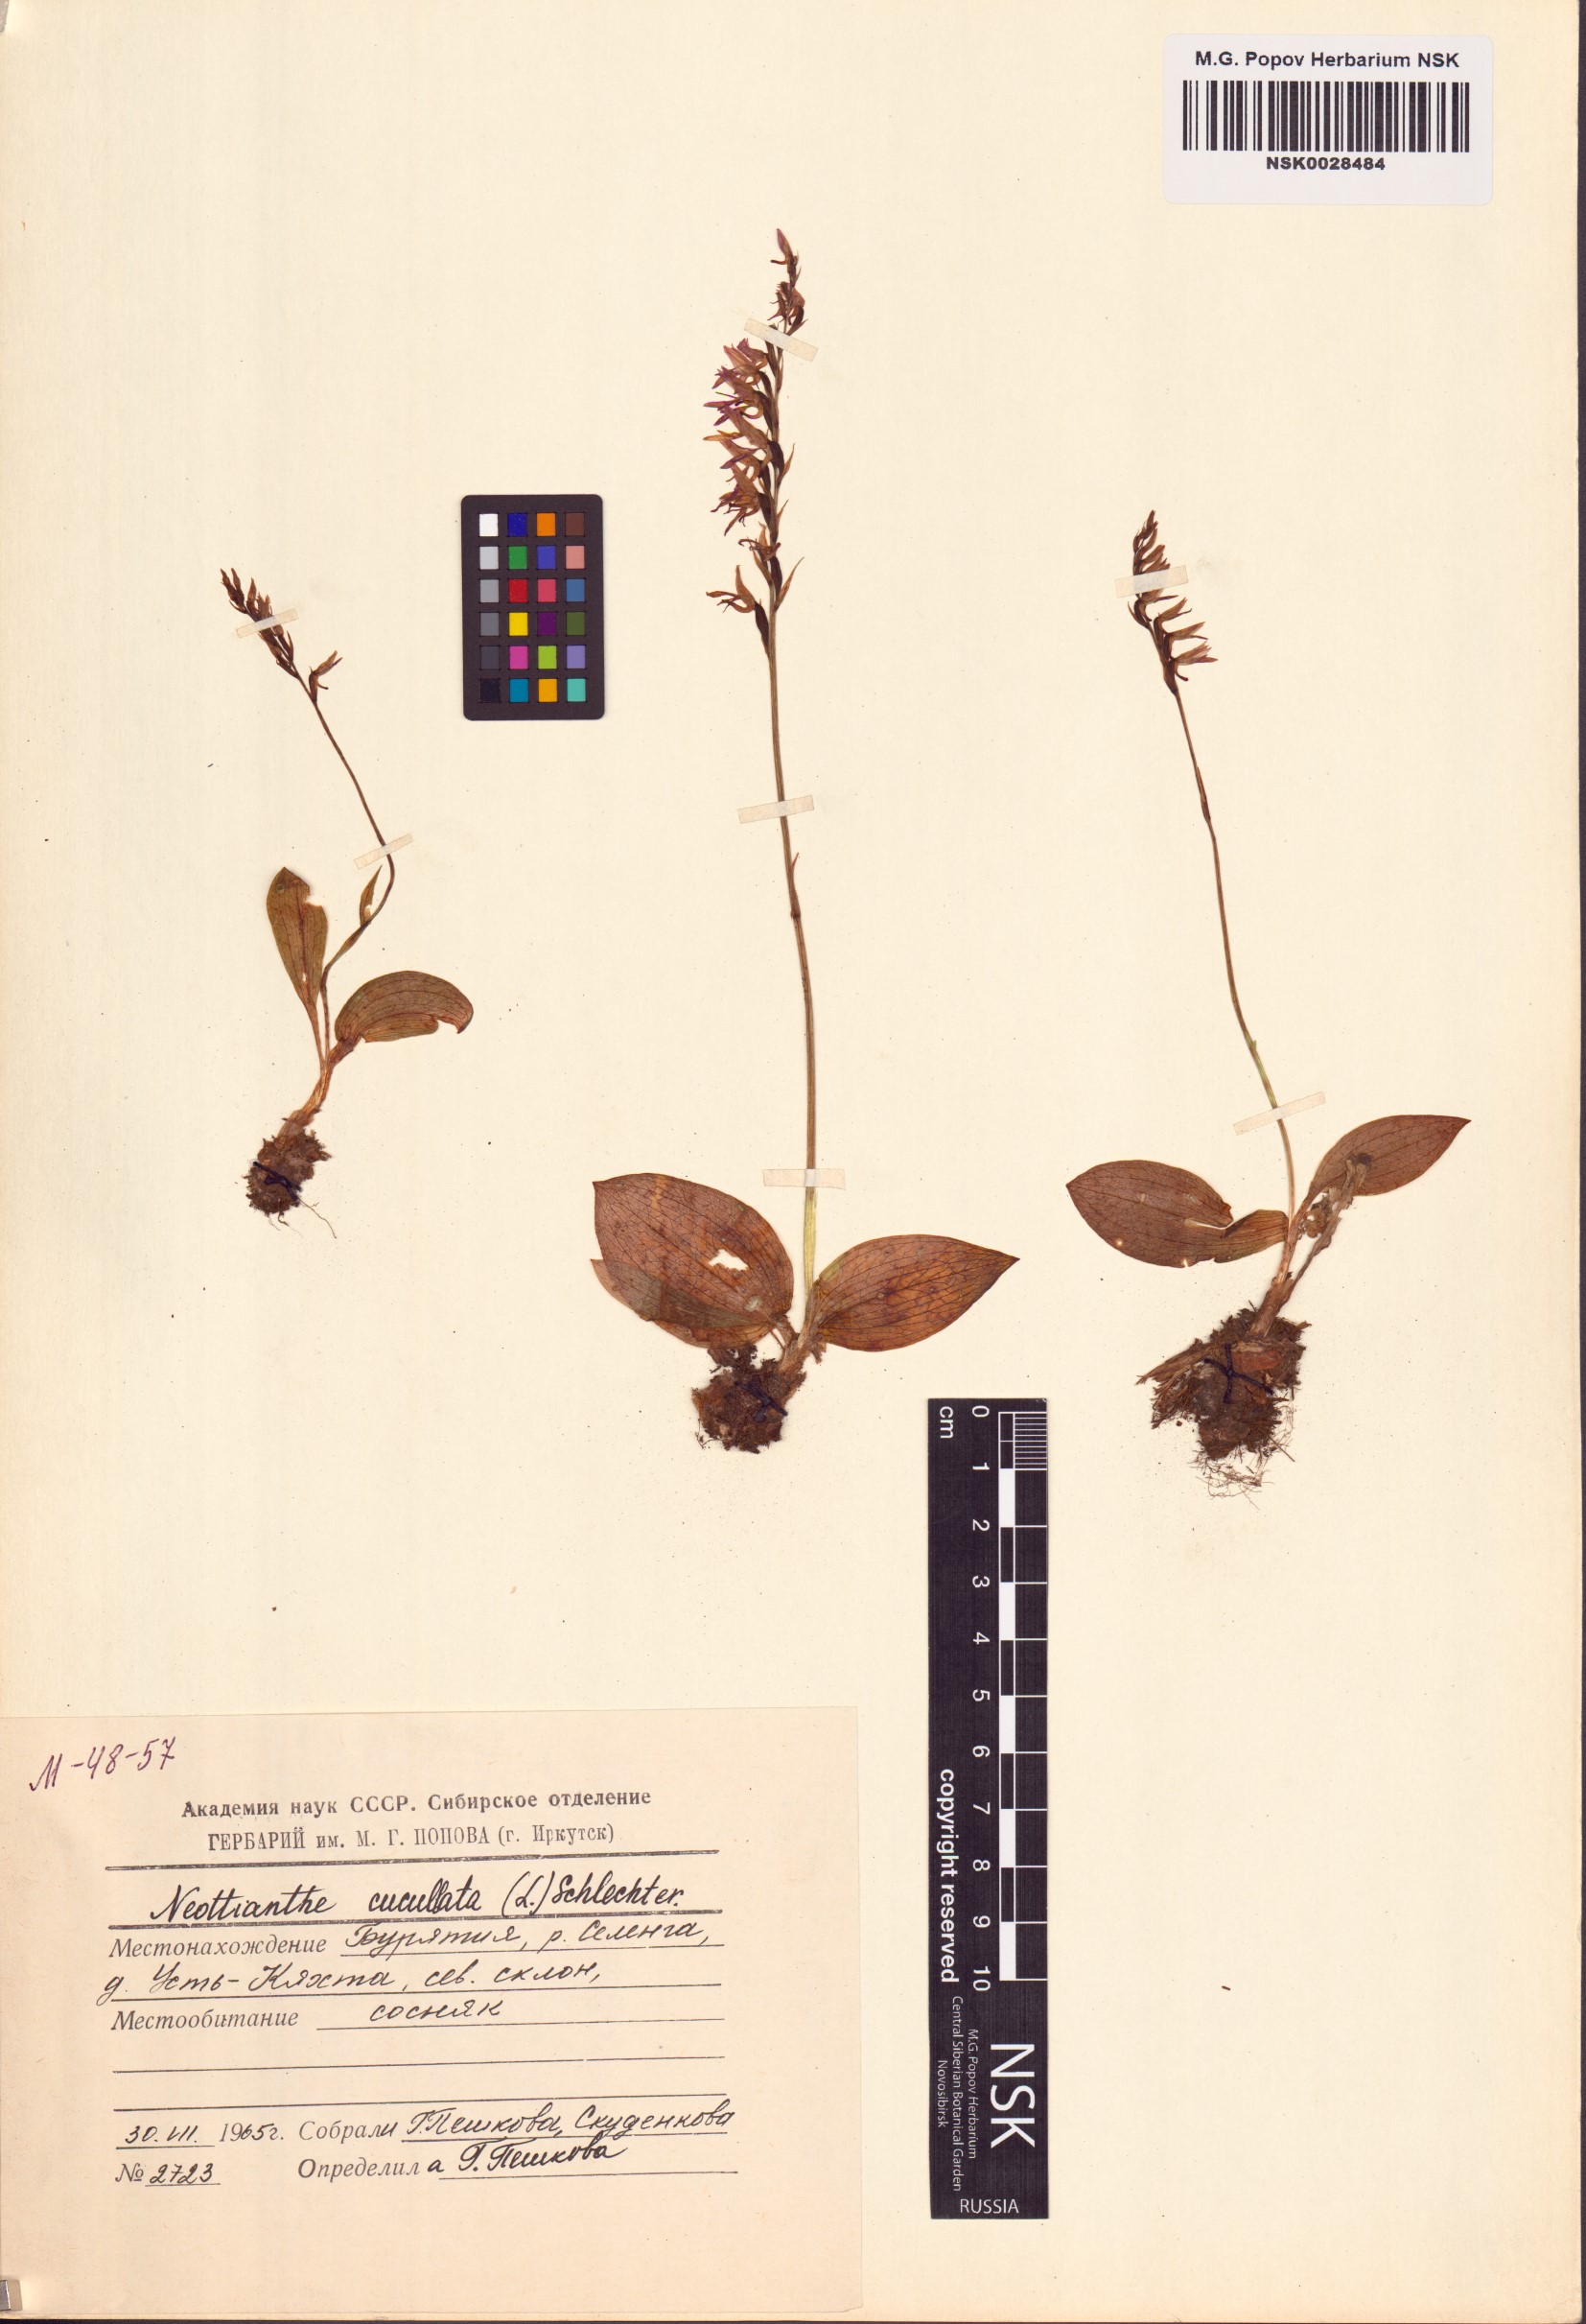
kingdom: Plantae
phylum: Tracheophyta
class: Liliopsida
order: Asparagales
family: Orchidaceae
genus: Hemipilia
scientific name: Hemipilia cucullata
